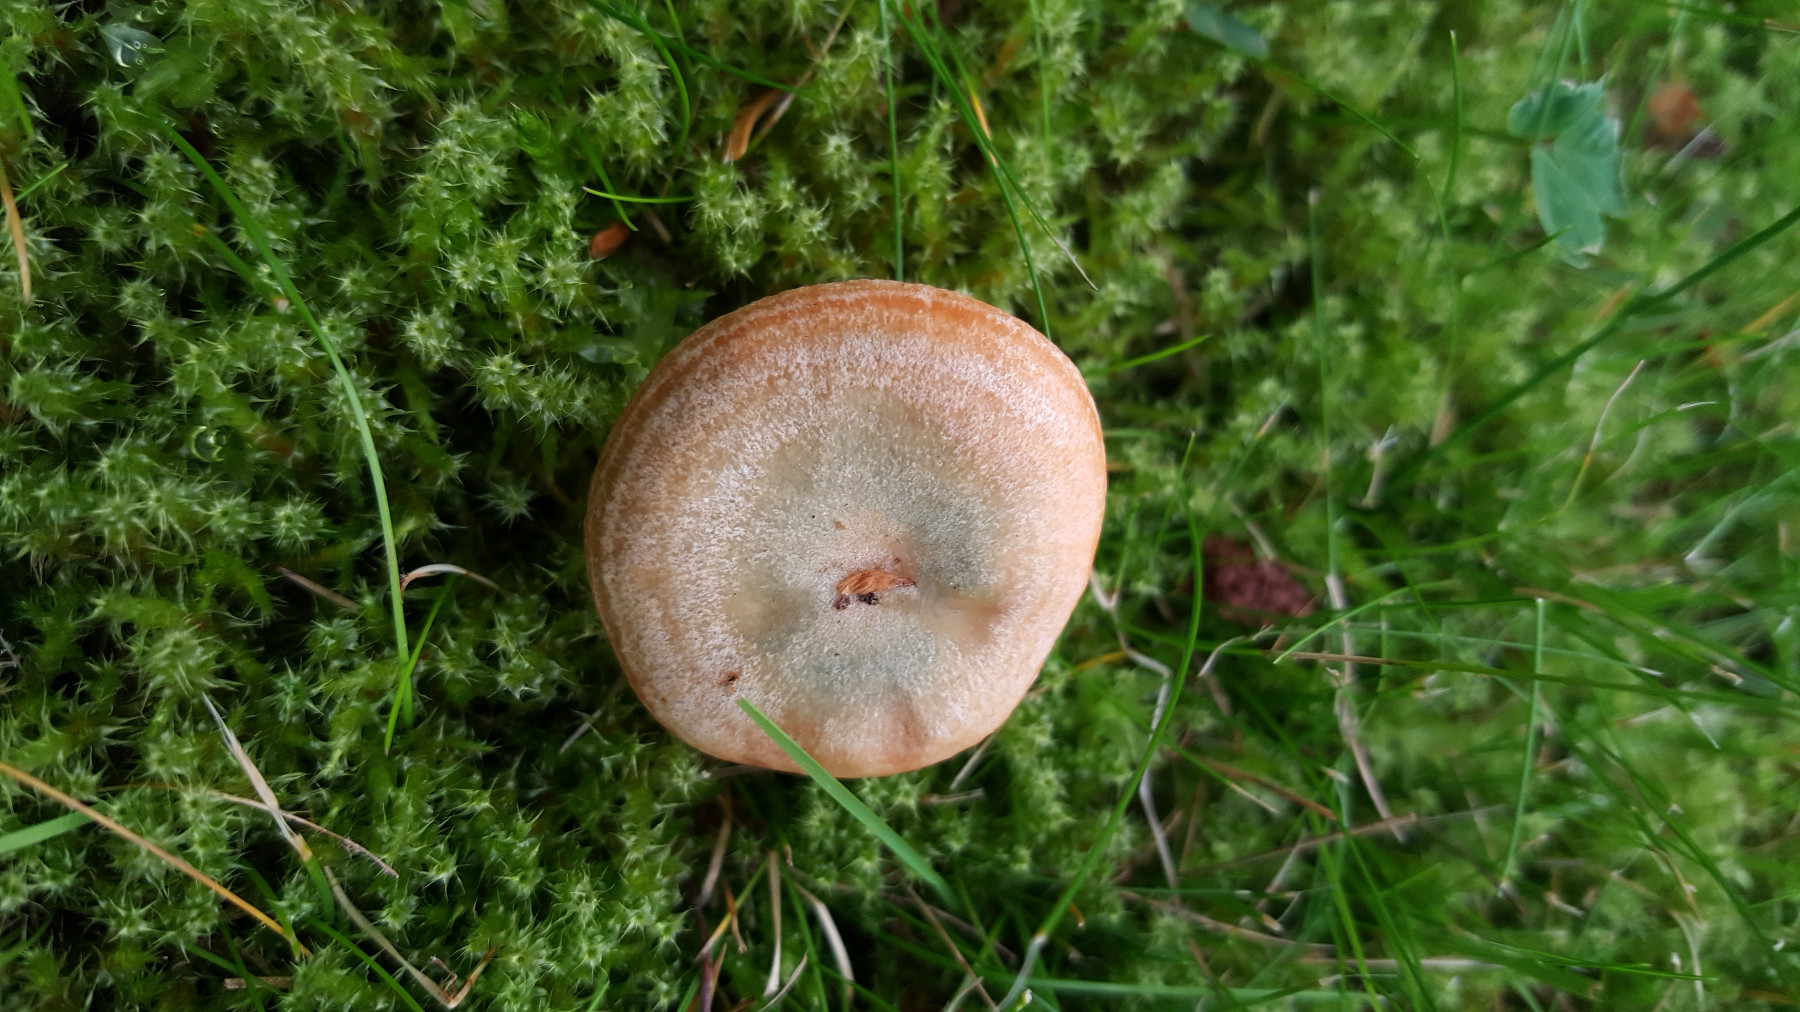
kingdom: Fungi
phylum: Basidiomycota
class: Agaricomycetes
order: Russulales
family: Russulaceae
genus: Lactarius
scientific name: Lactarius deterrimus
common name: gran-mælkehat
